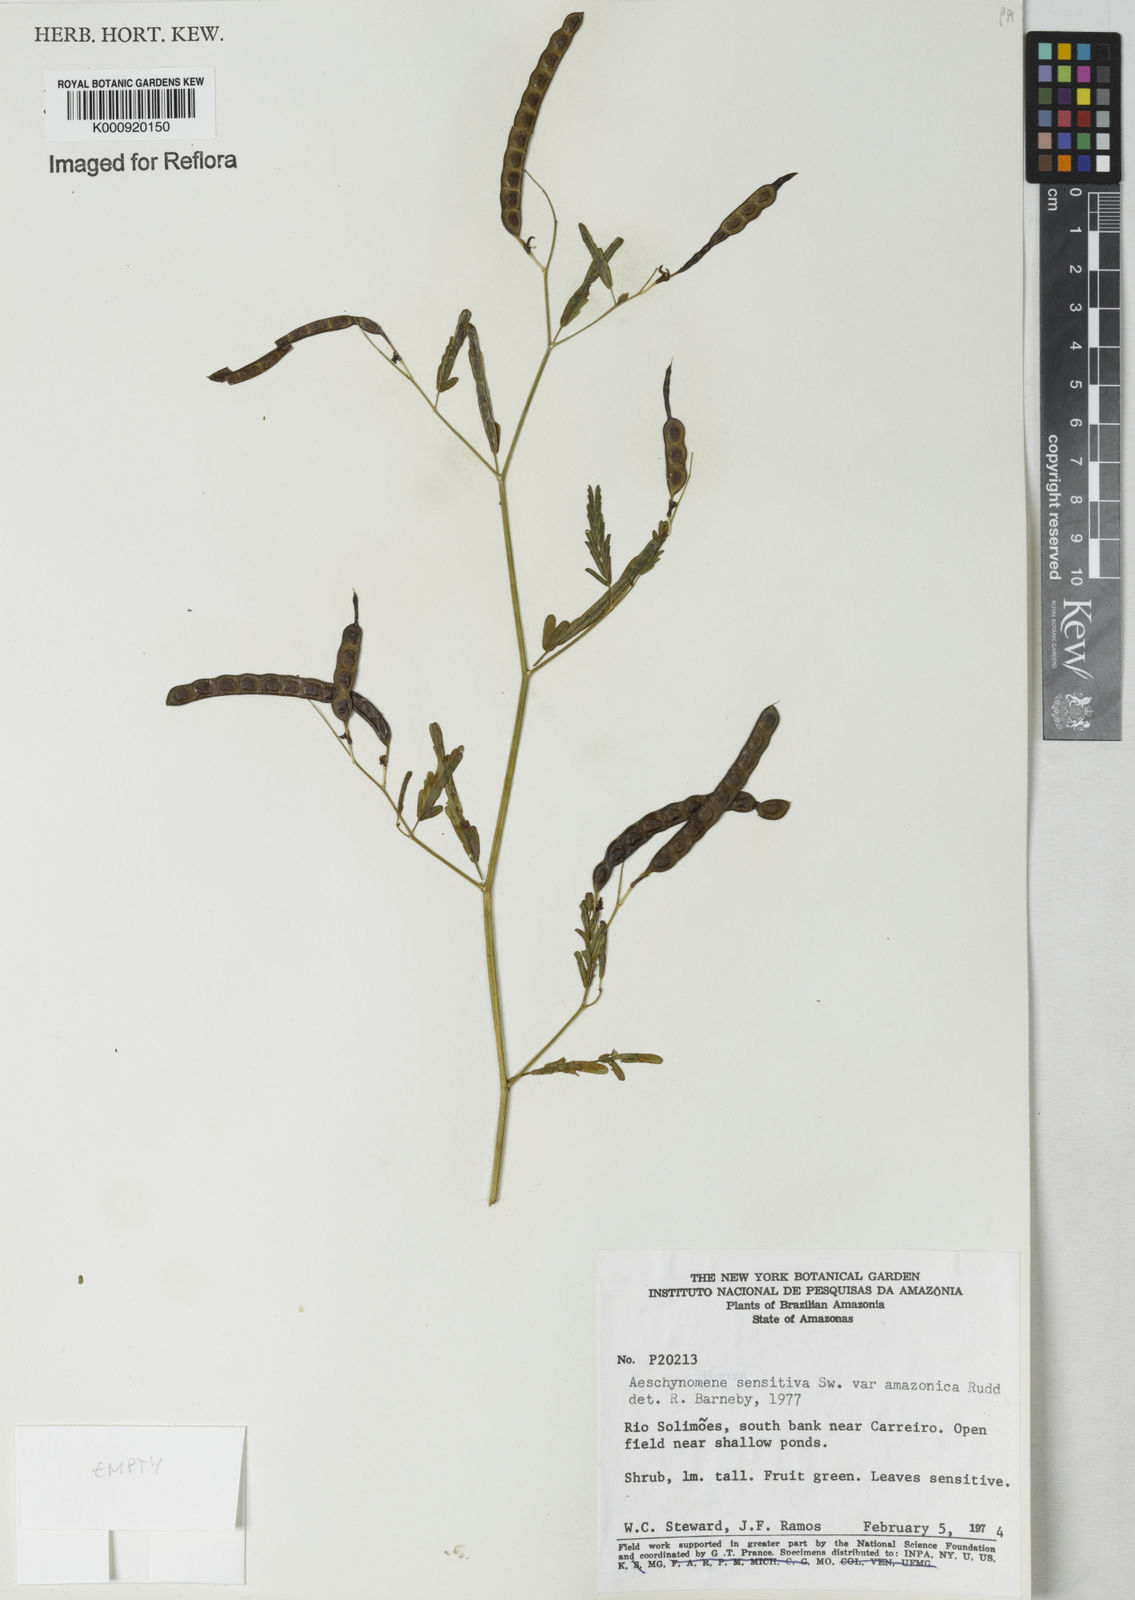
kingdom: Plantae
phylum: Tracheophyta
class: Magnoliopsida
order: Fabales
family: Fabaceae
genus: Aeschynomene
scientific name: Aeschynomene sensitiva
